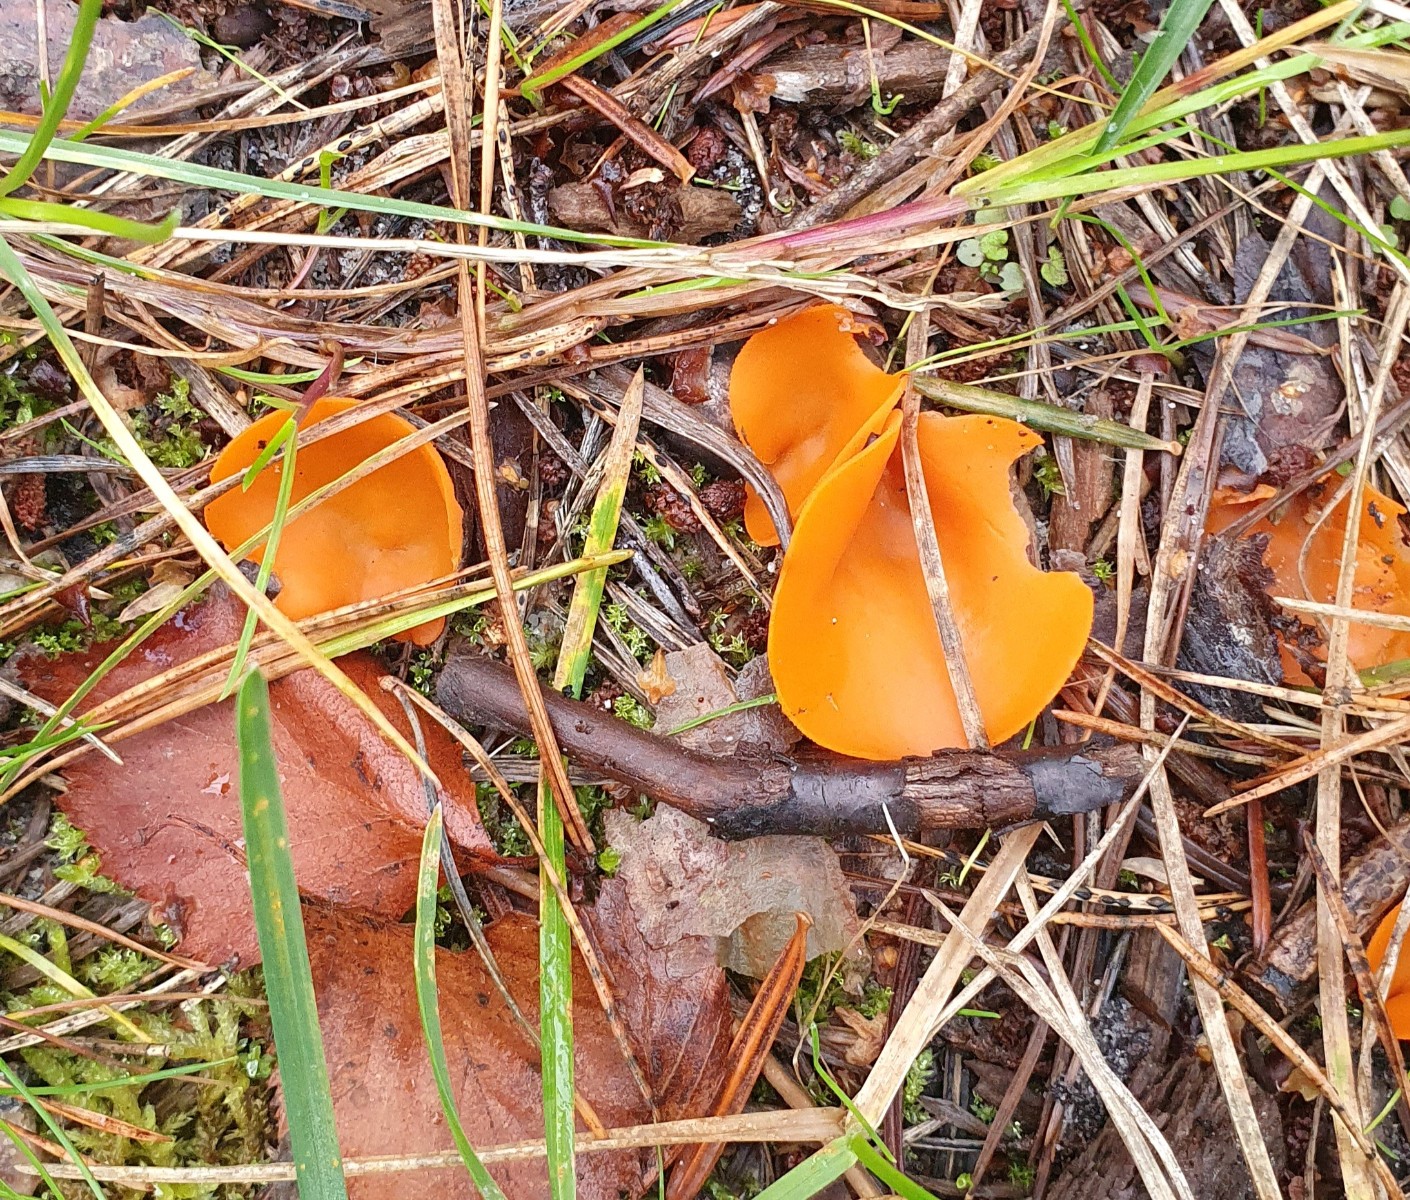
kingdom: Fungi
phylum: Ascomycota
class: Pezizomycetes
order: Pezizales
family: Pyronemataceae
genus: Aleuria
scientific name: Aleuria aurantia
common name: almindelig orangebæger
